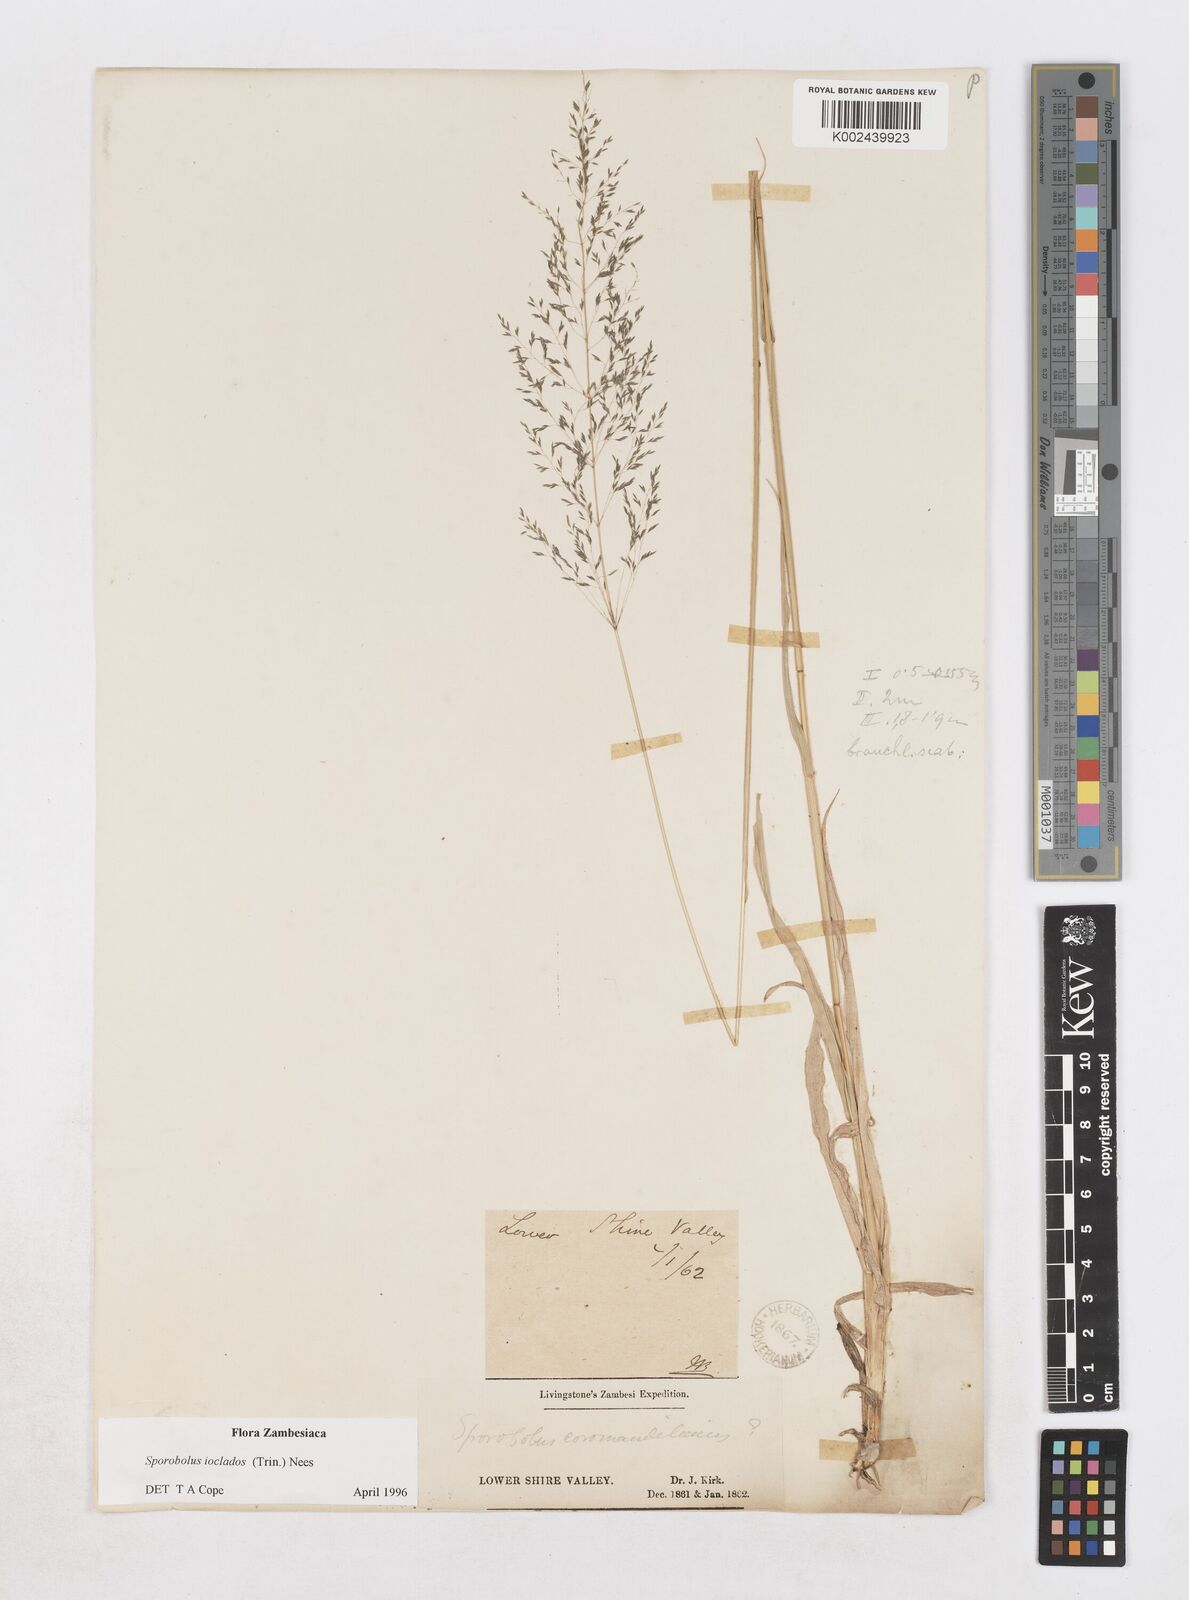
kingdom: Plantae
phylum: Tracheophyta
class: Liliopsida
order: Poales
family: Poaceae
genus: Sporobolus
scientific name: Sporobolus ioclados
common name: Pan dropseed
